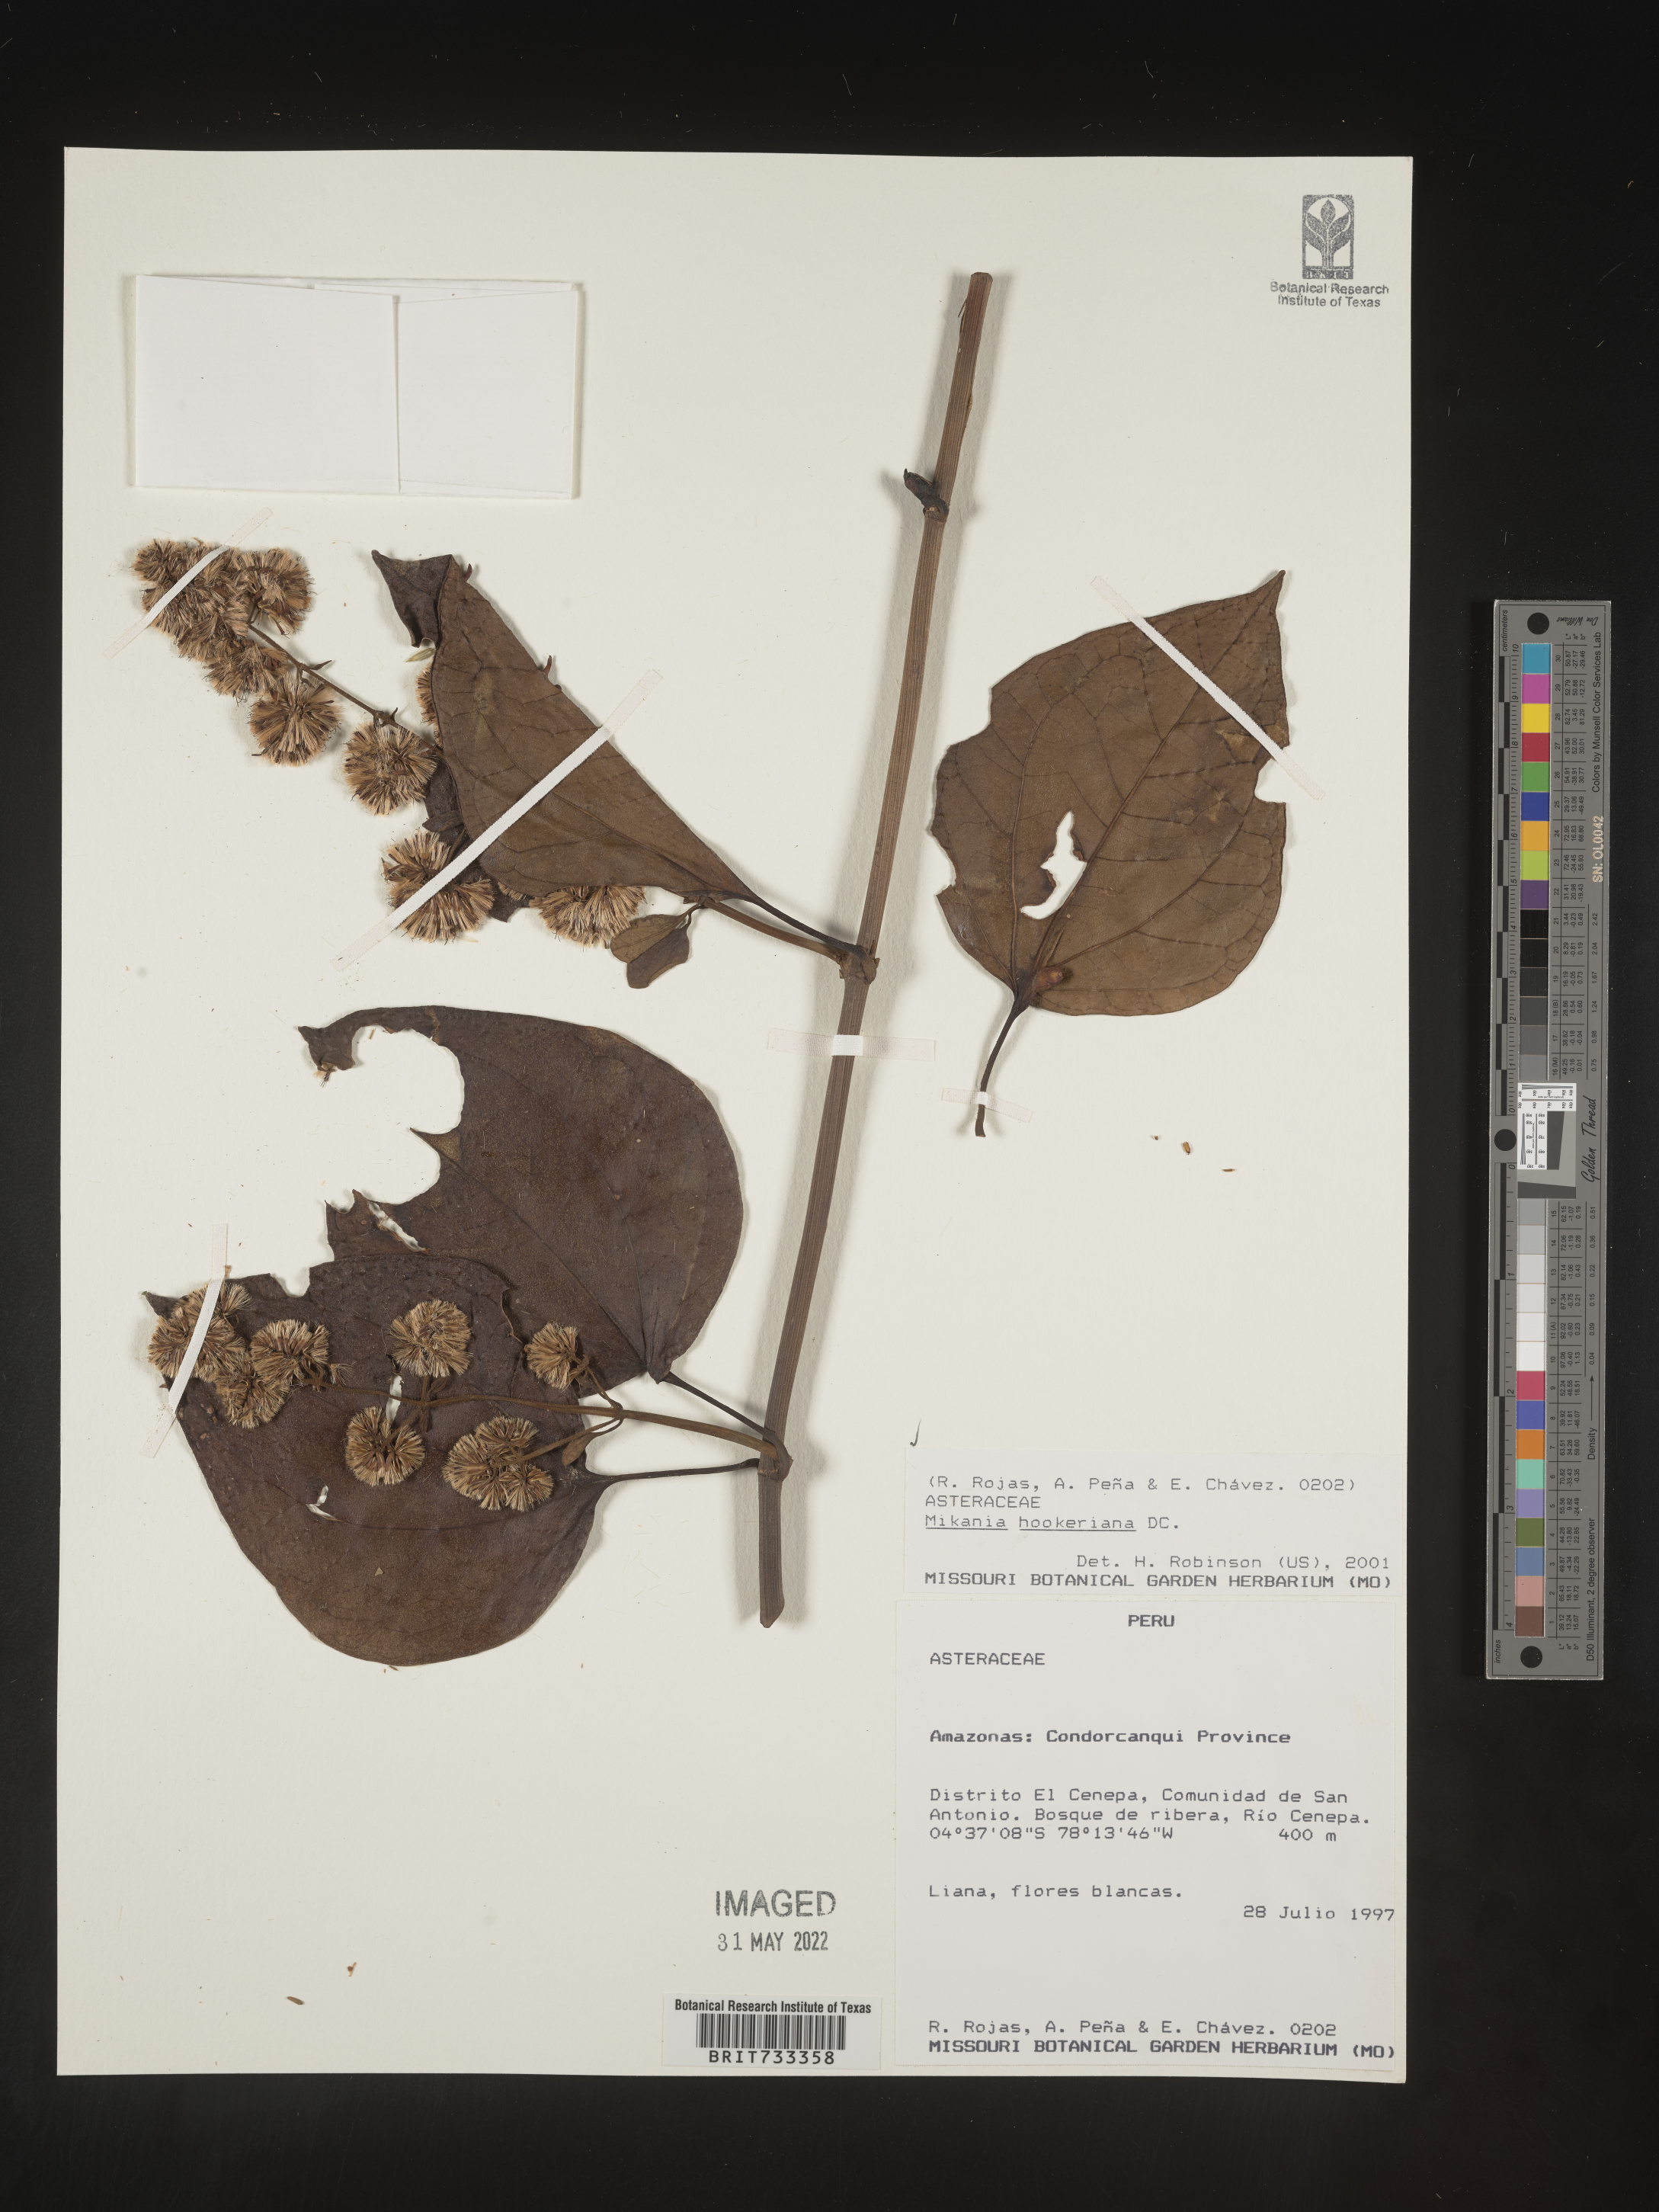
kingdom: Plantae
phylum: Tracheophyta
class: Magnoliopsida
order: Asterales
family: Asteraceae
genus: Mikania
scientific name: Mikania
